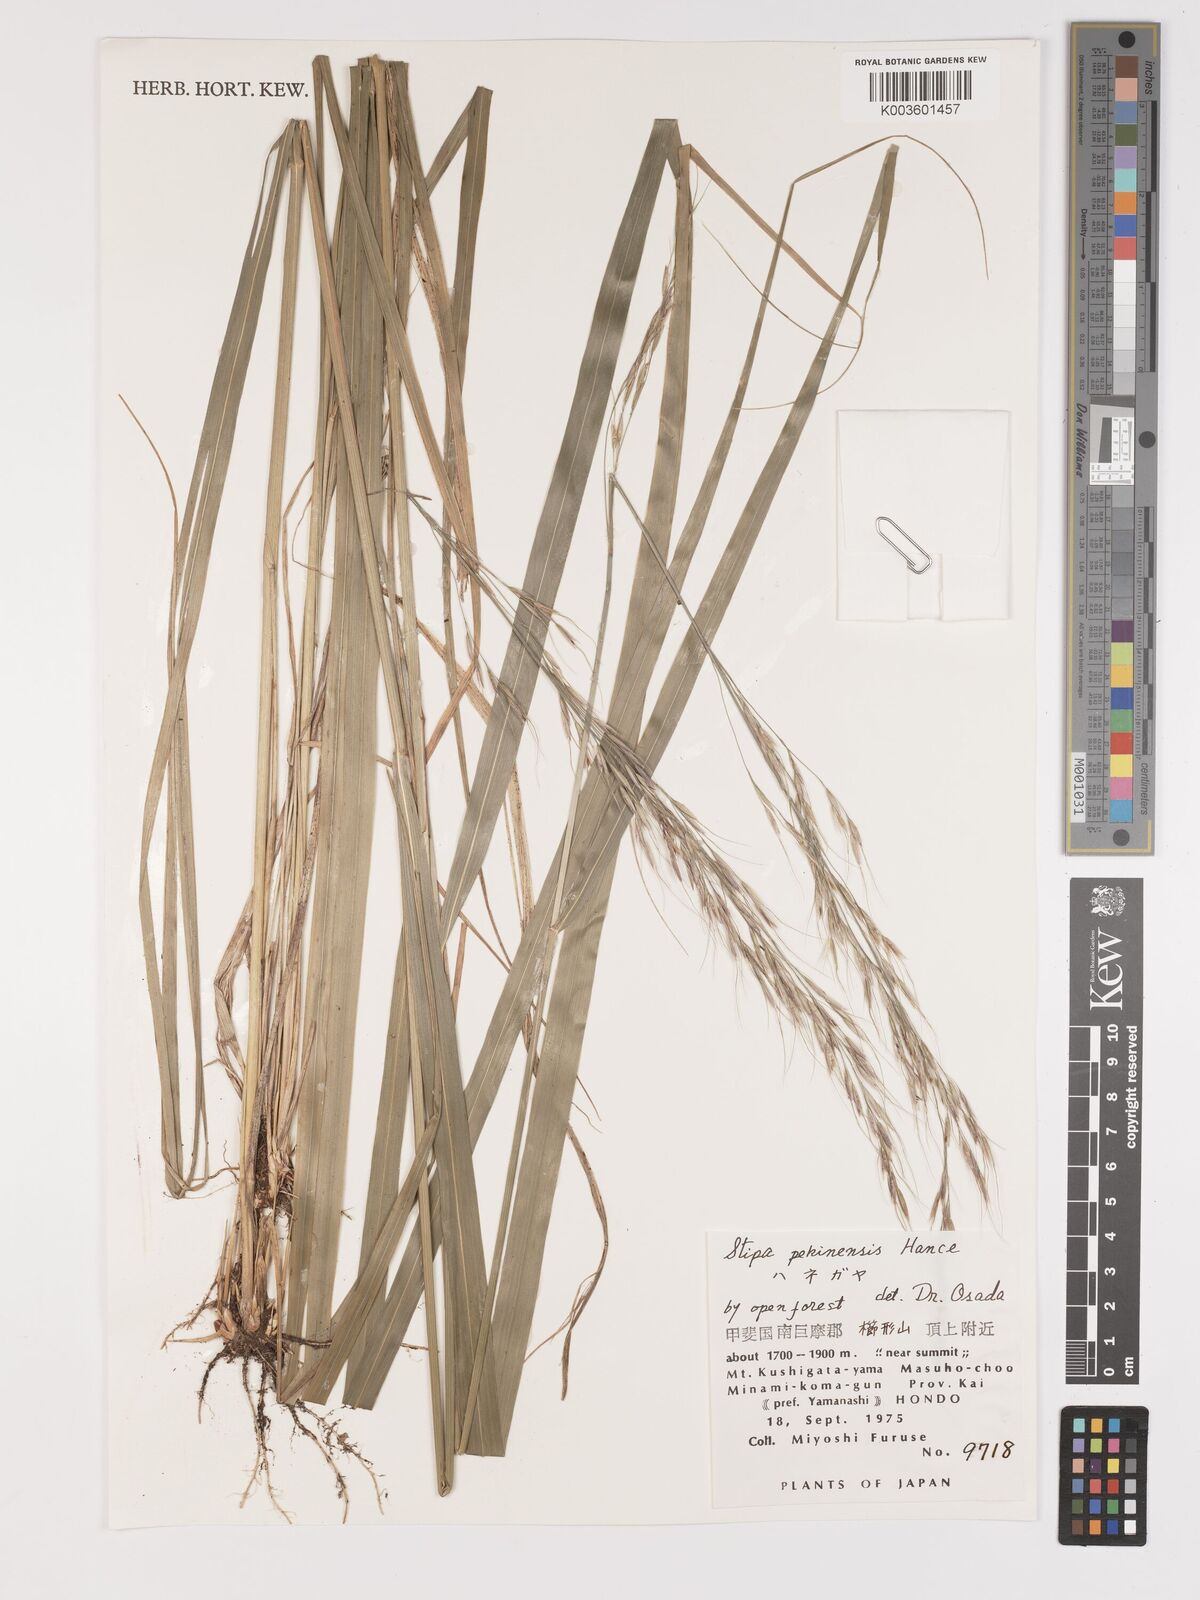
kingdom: Plantae
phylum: Tracheophyta
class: Liliopsida
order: Poales
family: Poaceae
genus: Achnatherum
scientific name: Achnatherum pekinense
